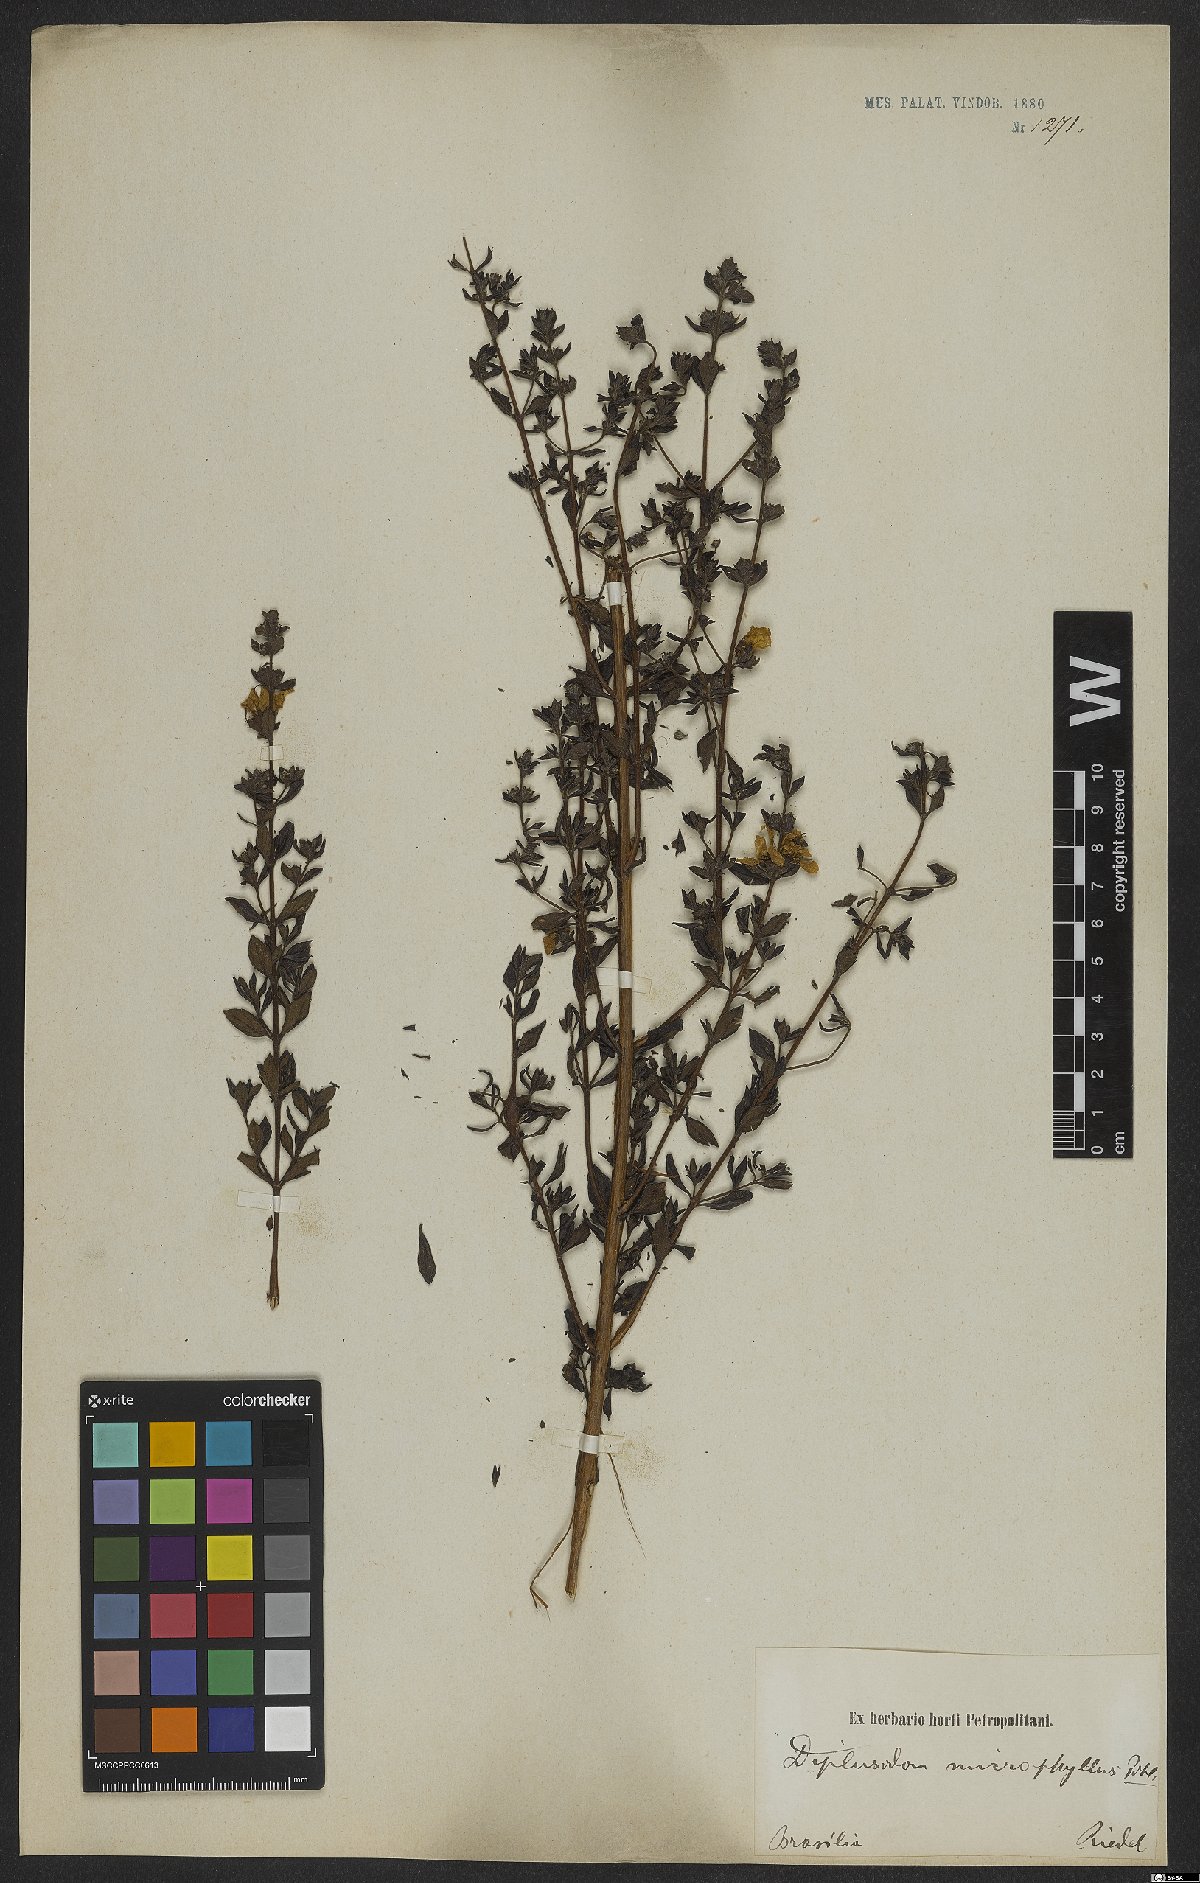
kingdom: Plantae
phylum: Tracheophyta
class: Magnoliopsida
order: Myrtales
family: Lythraceae
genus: Diplusodon
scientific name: Diplusodon microphyllus
